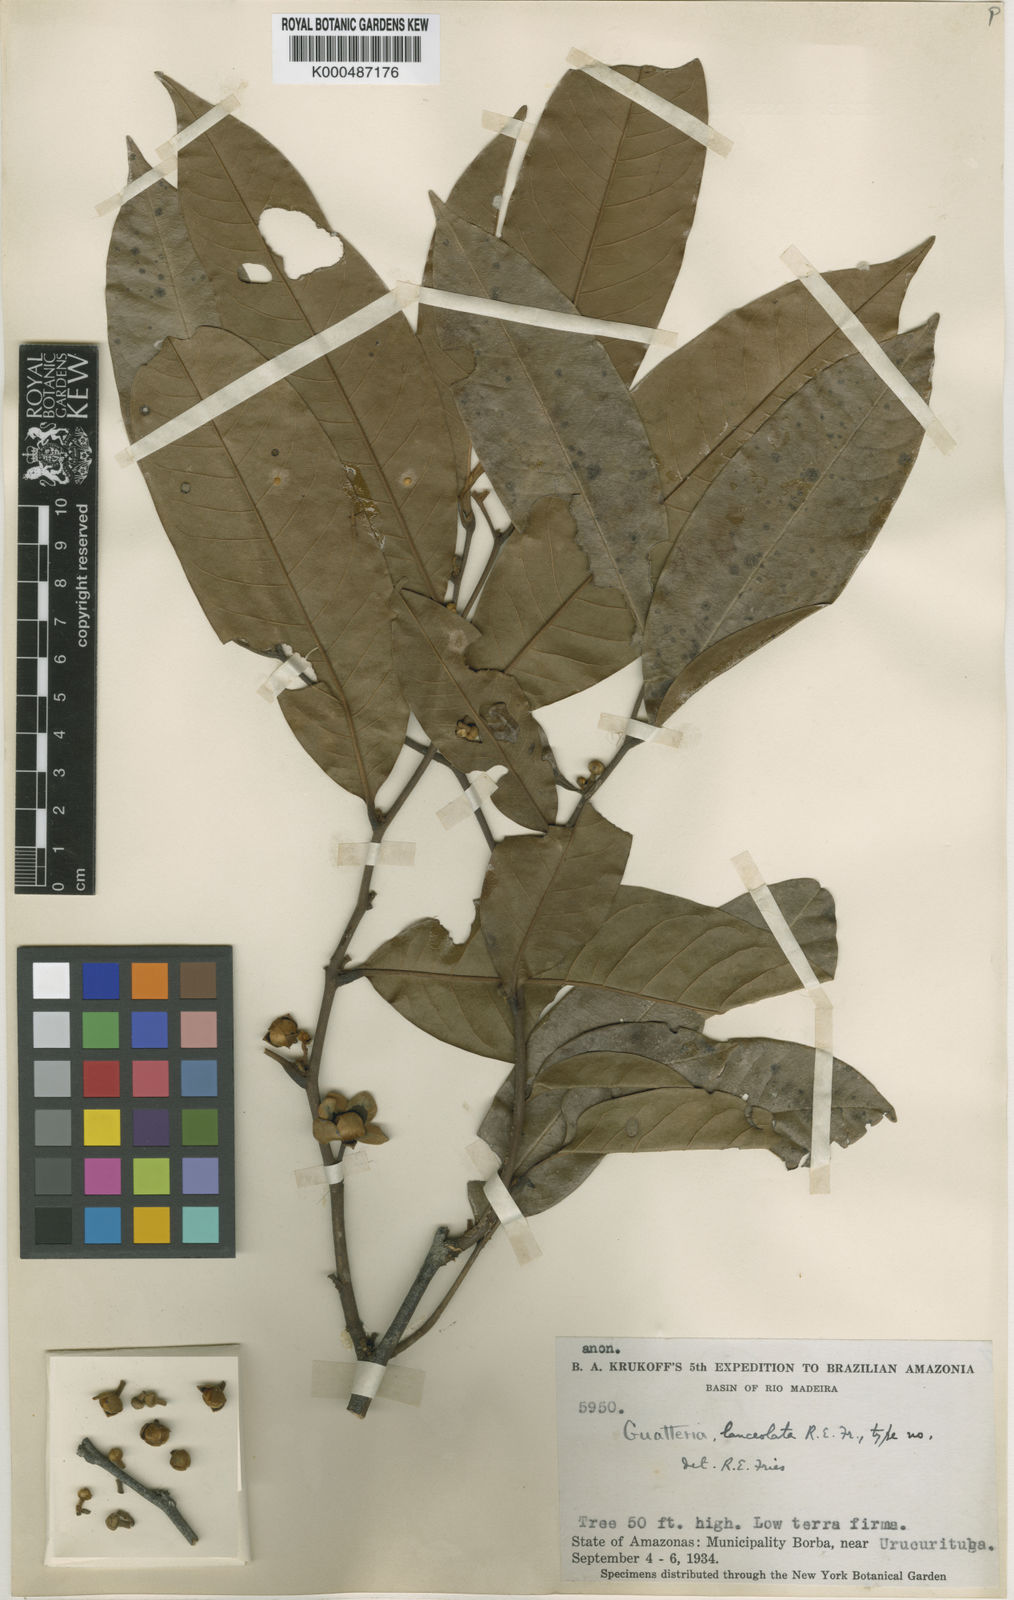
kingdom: Plantae
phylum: Tracheophyta
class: Magnoliopsida
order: Magnoliales
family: Annonaceae
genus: Guatteria
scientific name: Guatteria punctata
